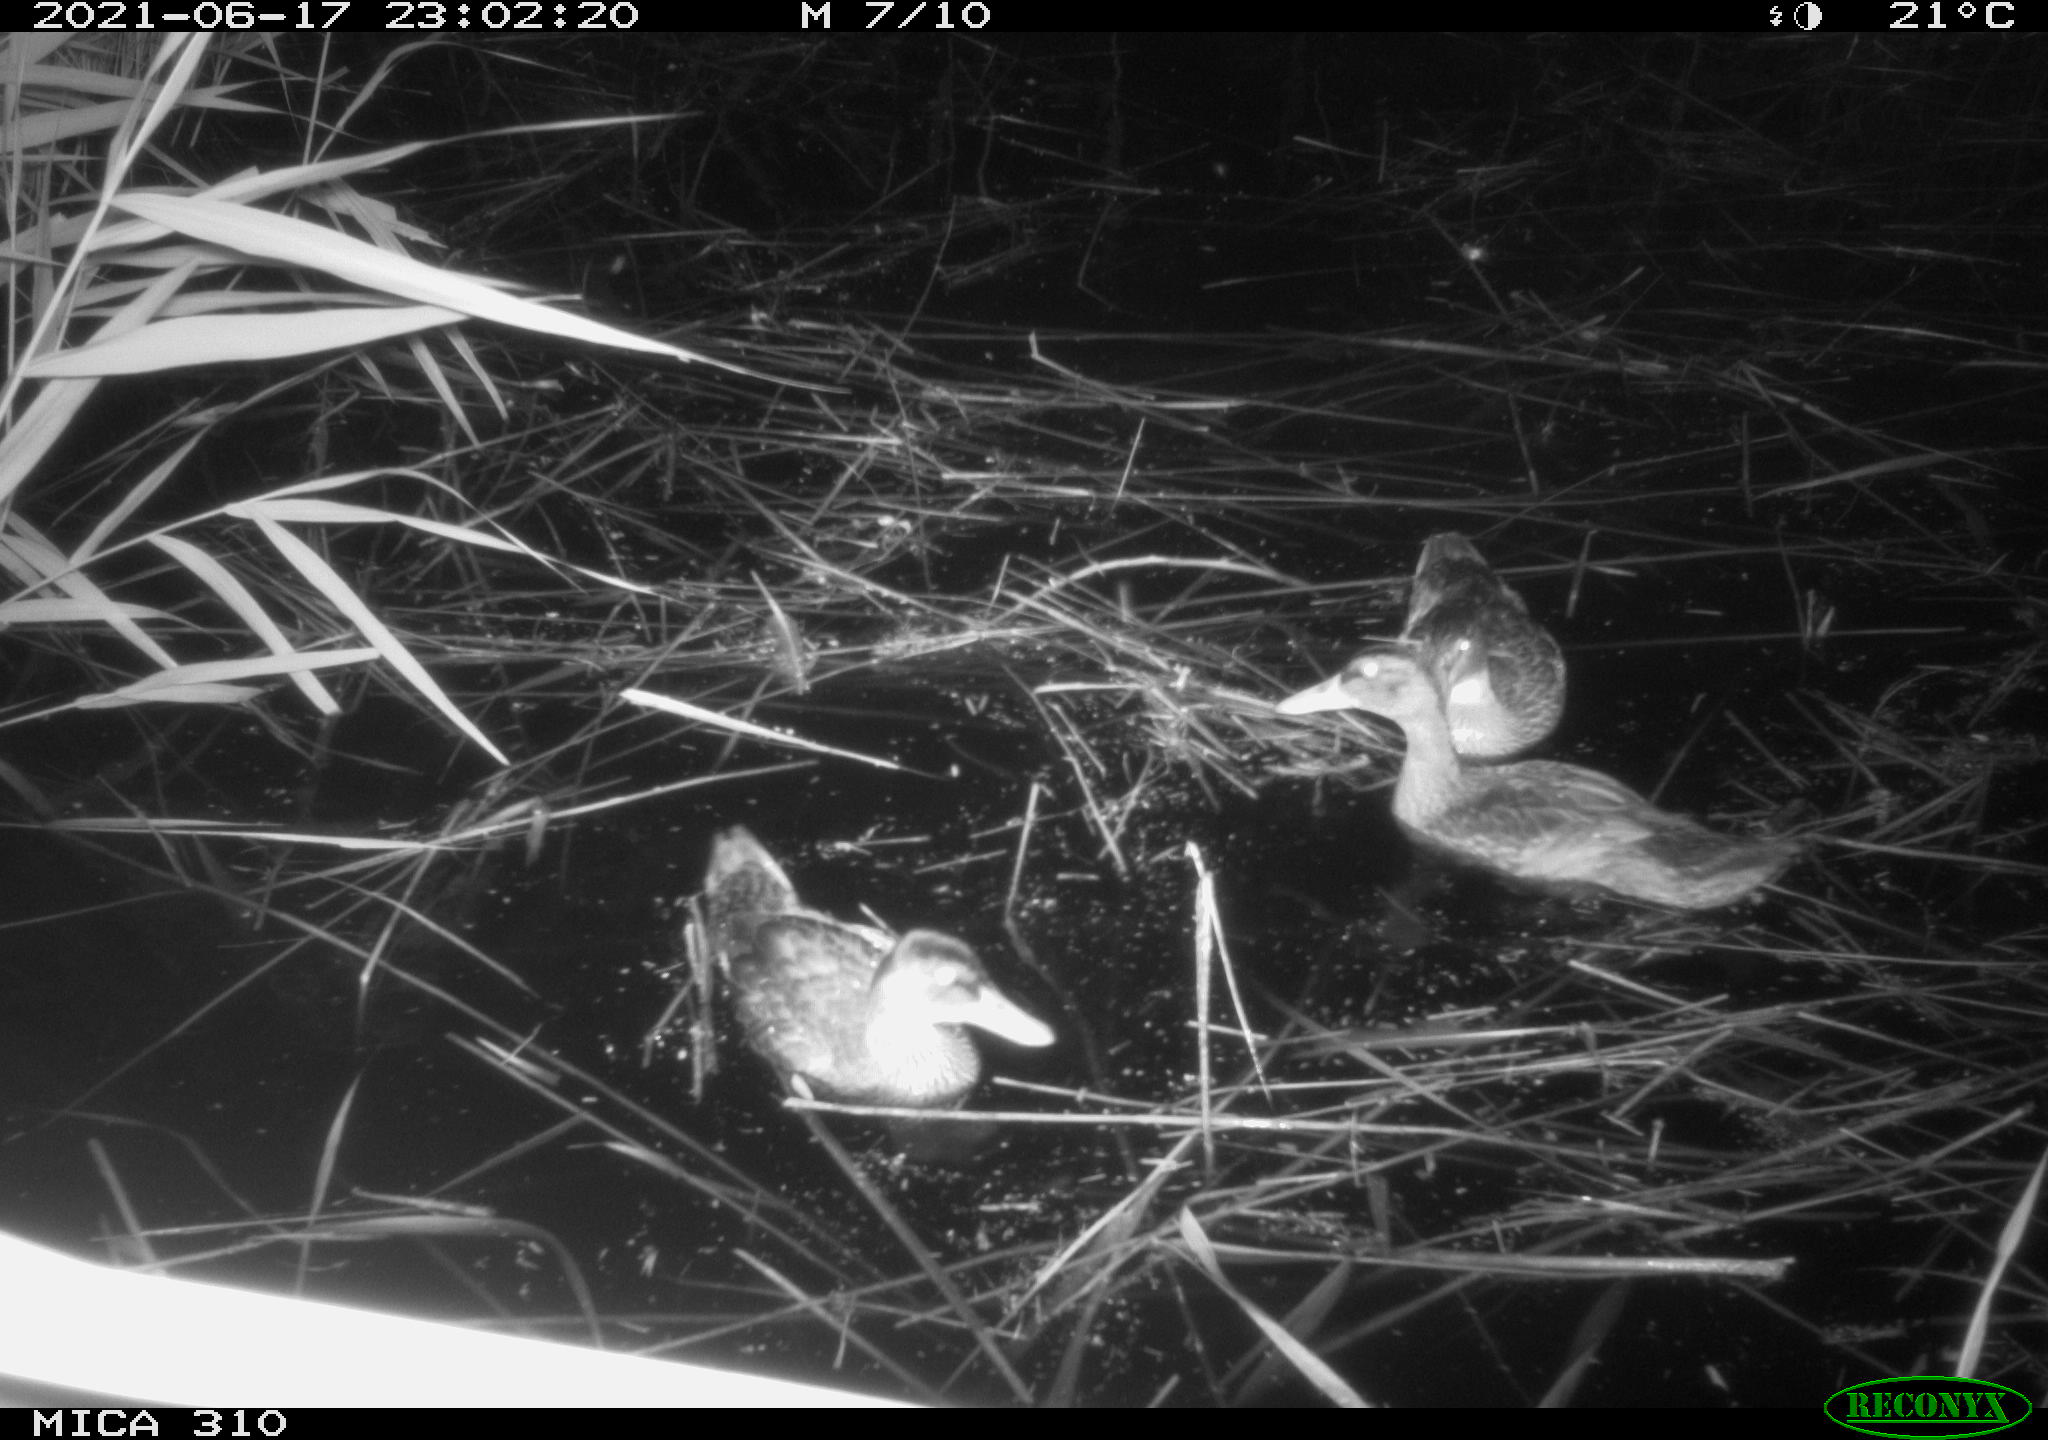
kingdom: Animalia
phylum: Chordata
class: Aves
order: Anseriformes
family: Anatidae
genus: Anas
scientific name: Anas
